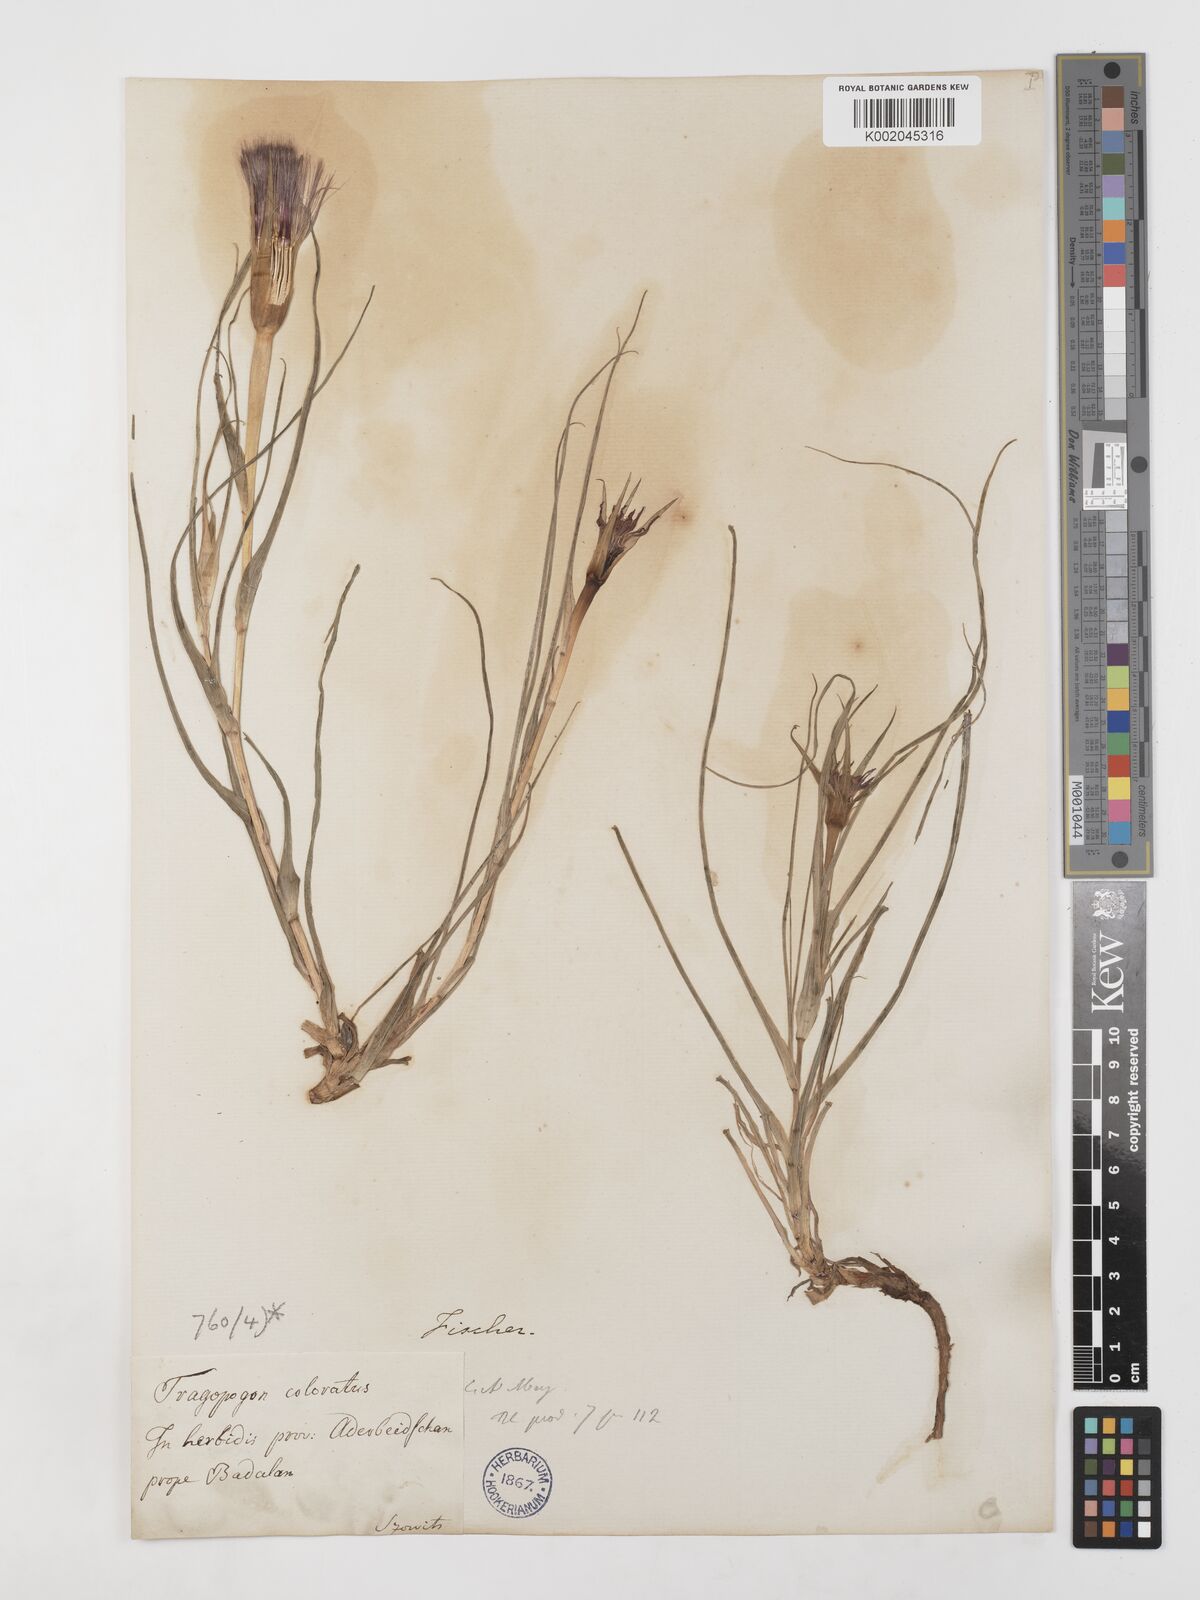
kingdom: Plantae
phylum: Tracheophyta
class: Magnoliopsida
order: Asterales
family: Asteraceae
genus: Tragopogon
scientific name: Tragopogon coloratus
